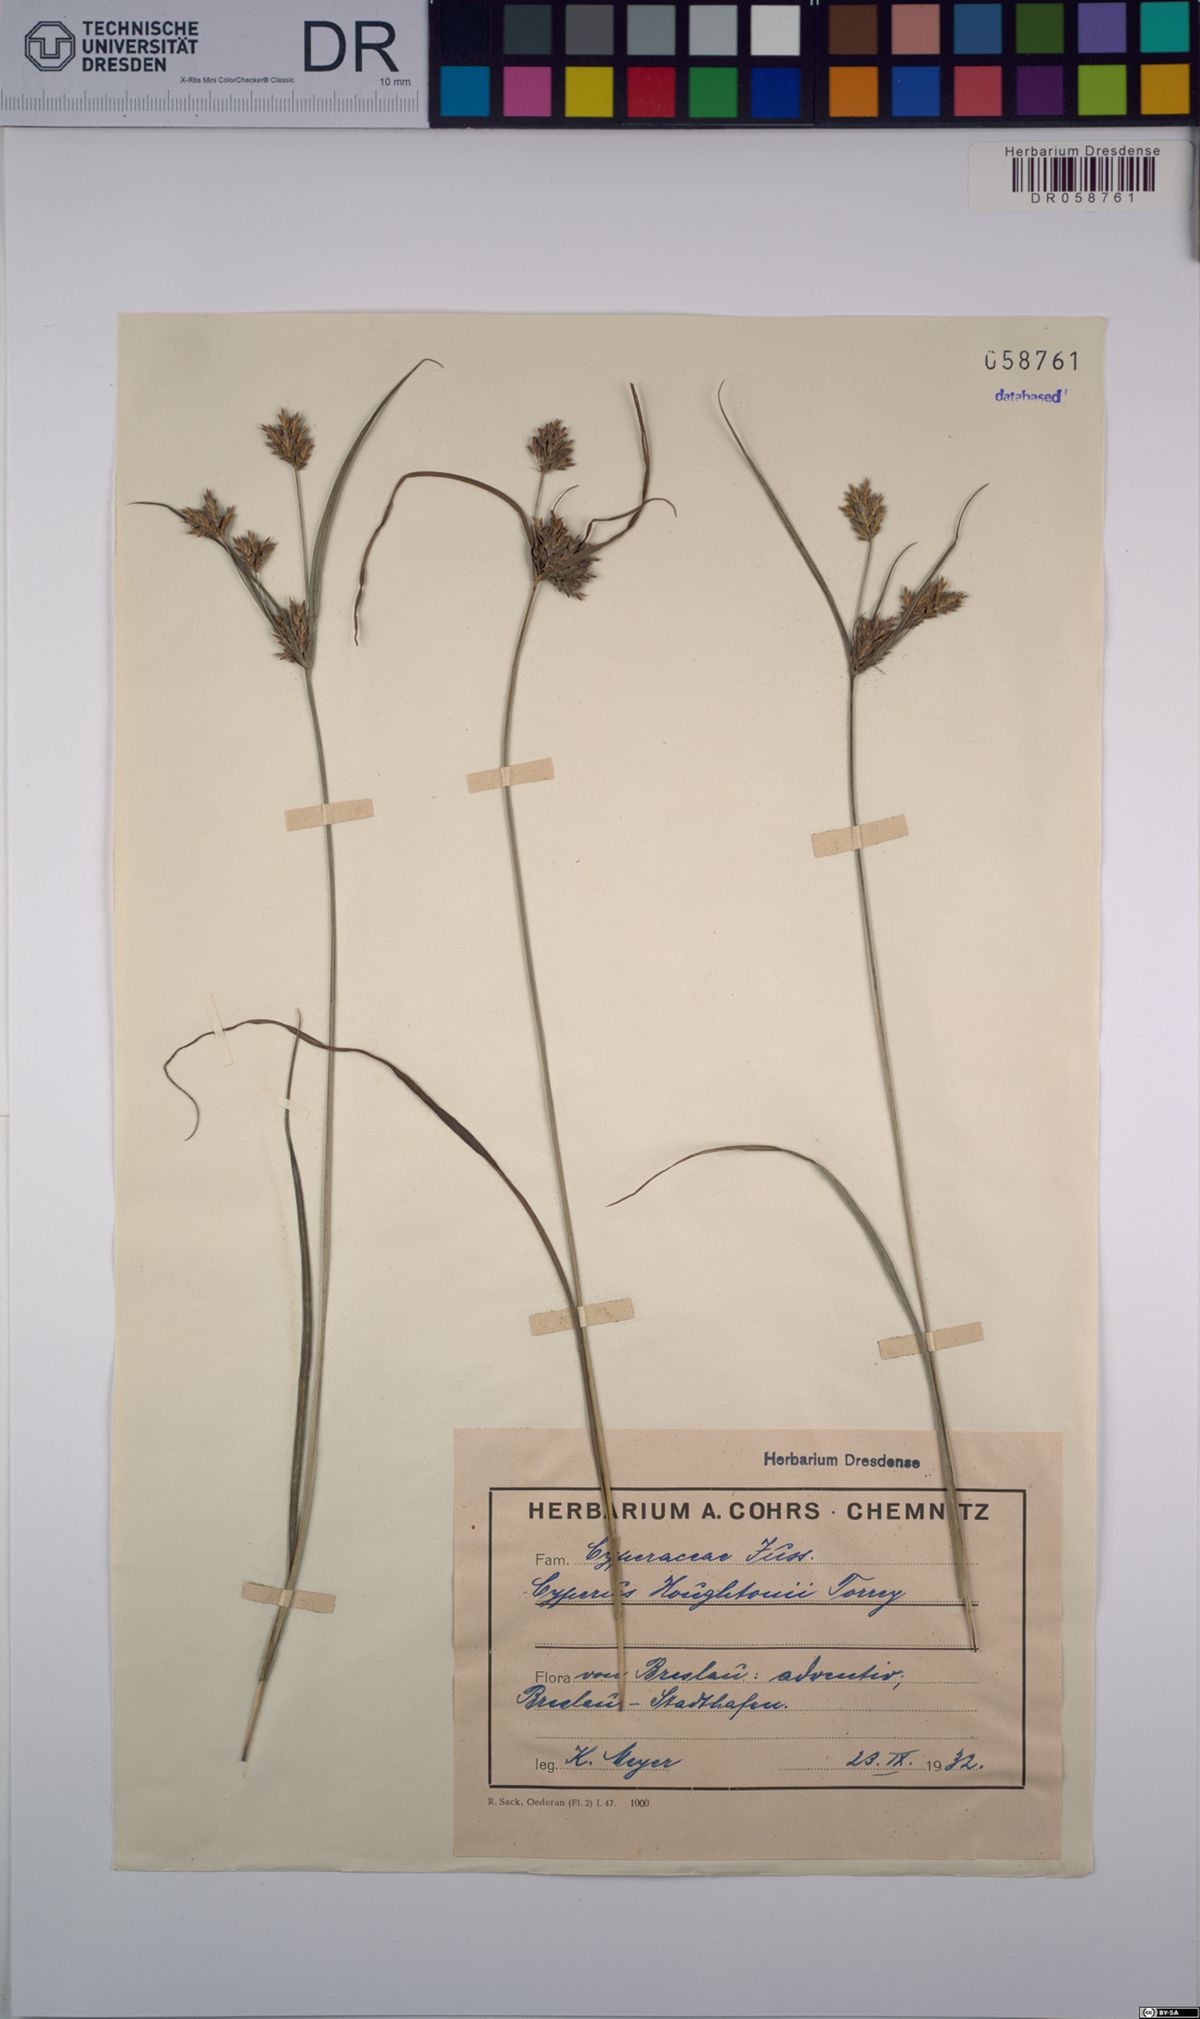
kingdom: Plantae
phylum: Tracheophyta
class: Liliopsida
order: Poales
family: Cyperaceae
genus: Cyperus
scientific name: Cyperus houghtonii
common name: Houghton's cyperus
